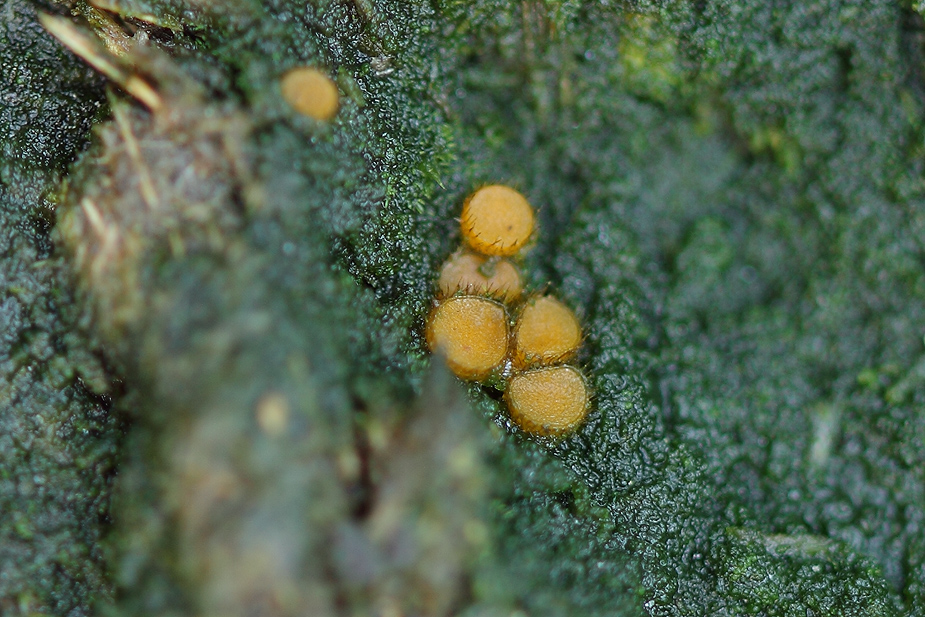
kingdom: Fungi
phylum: Ascomycota
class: Pezizomycetes
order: Pezizales
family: Pyronemataceae
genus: Cheilymenia
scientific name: Cheilymenia fimicola
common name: møg-hårbæger
